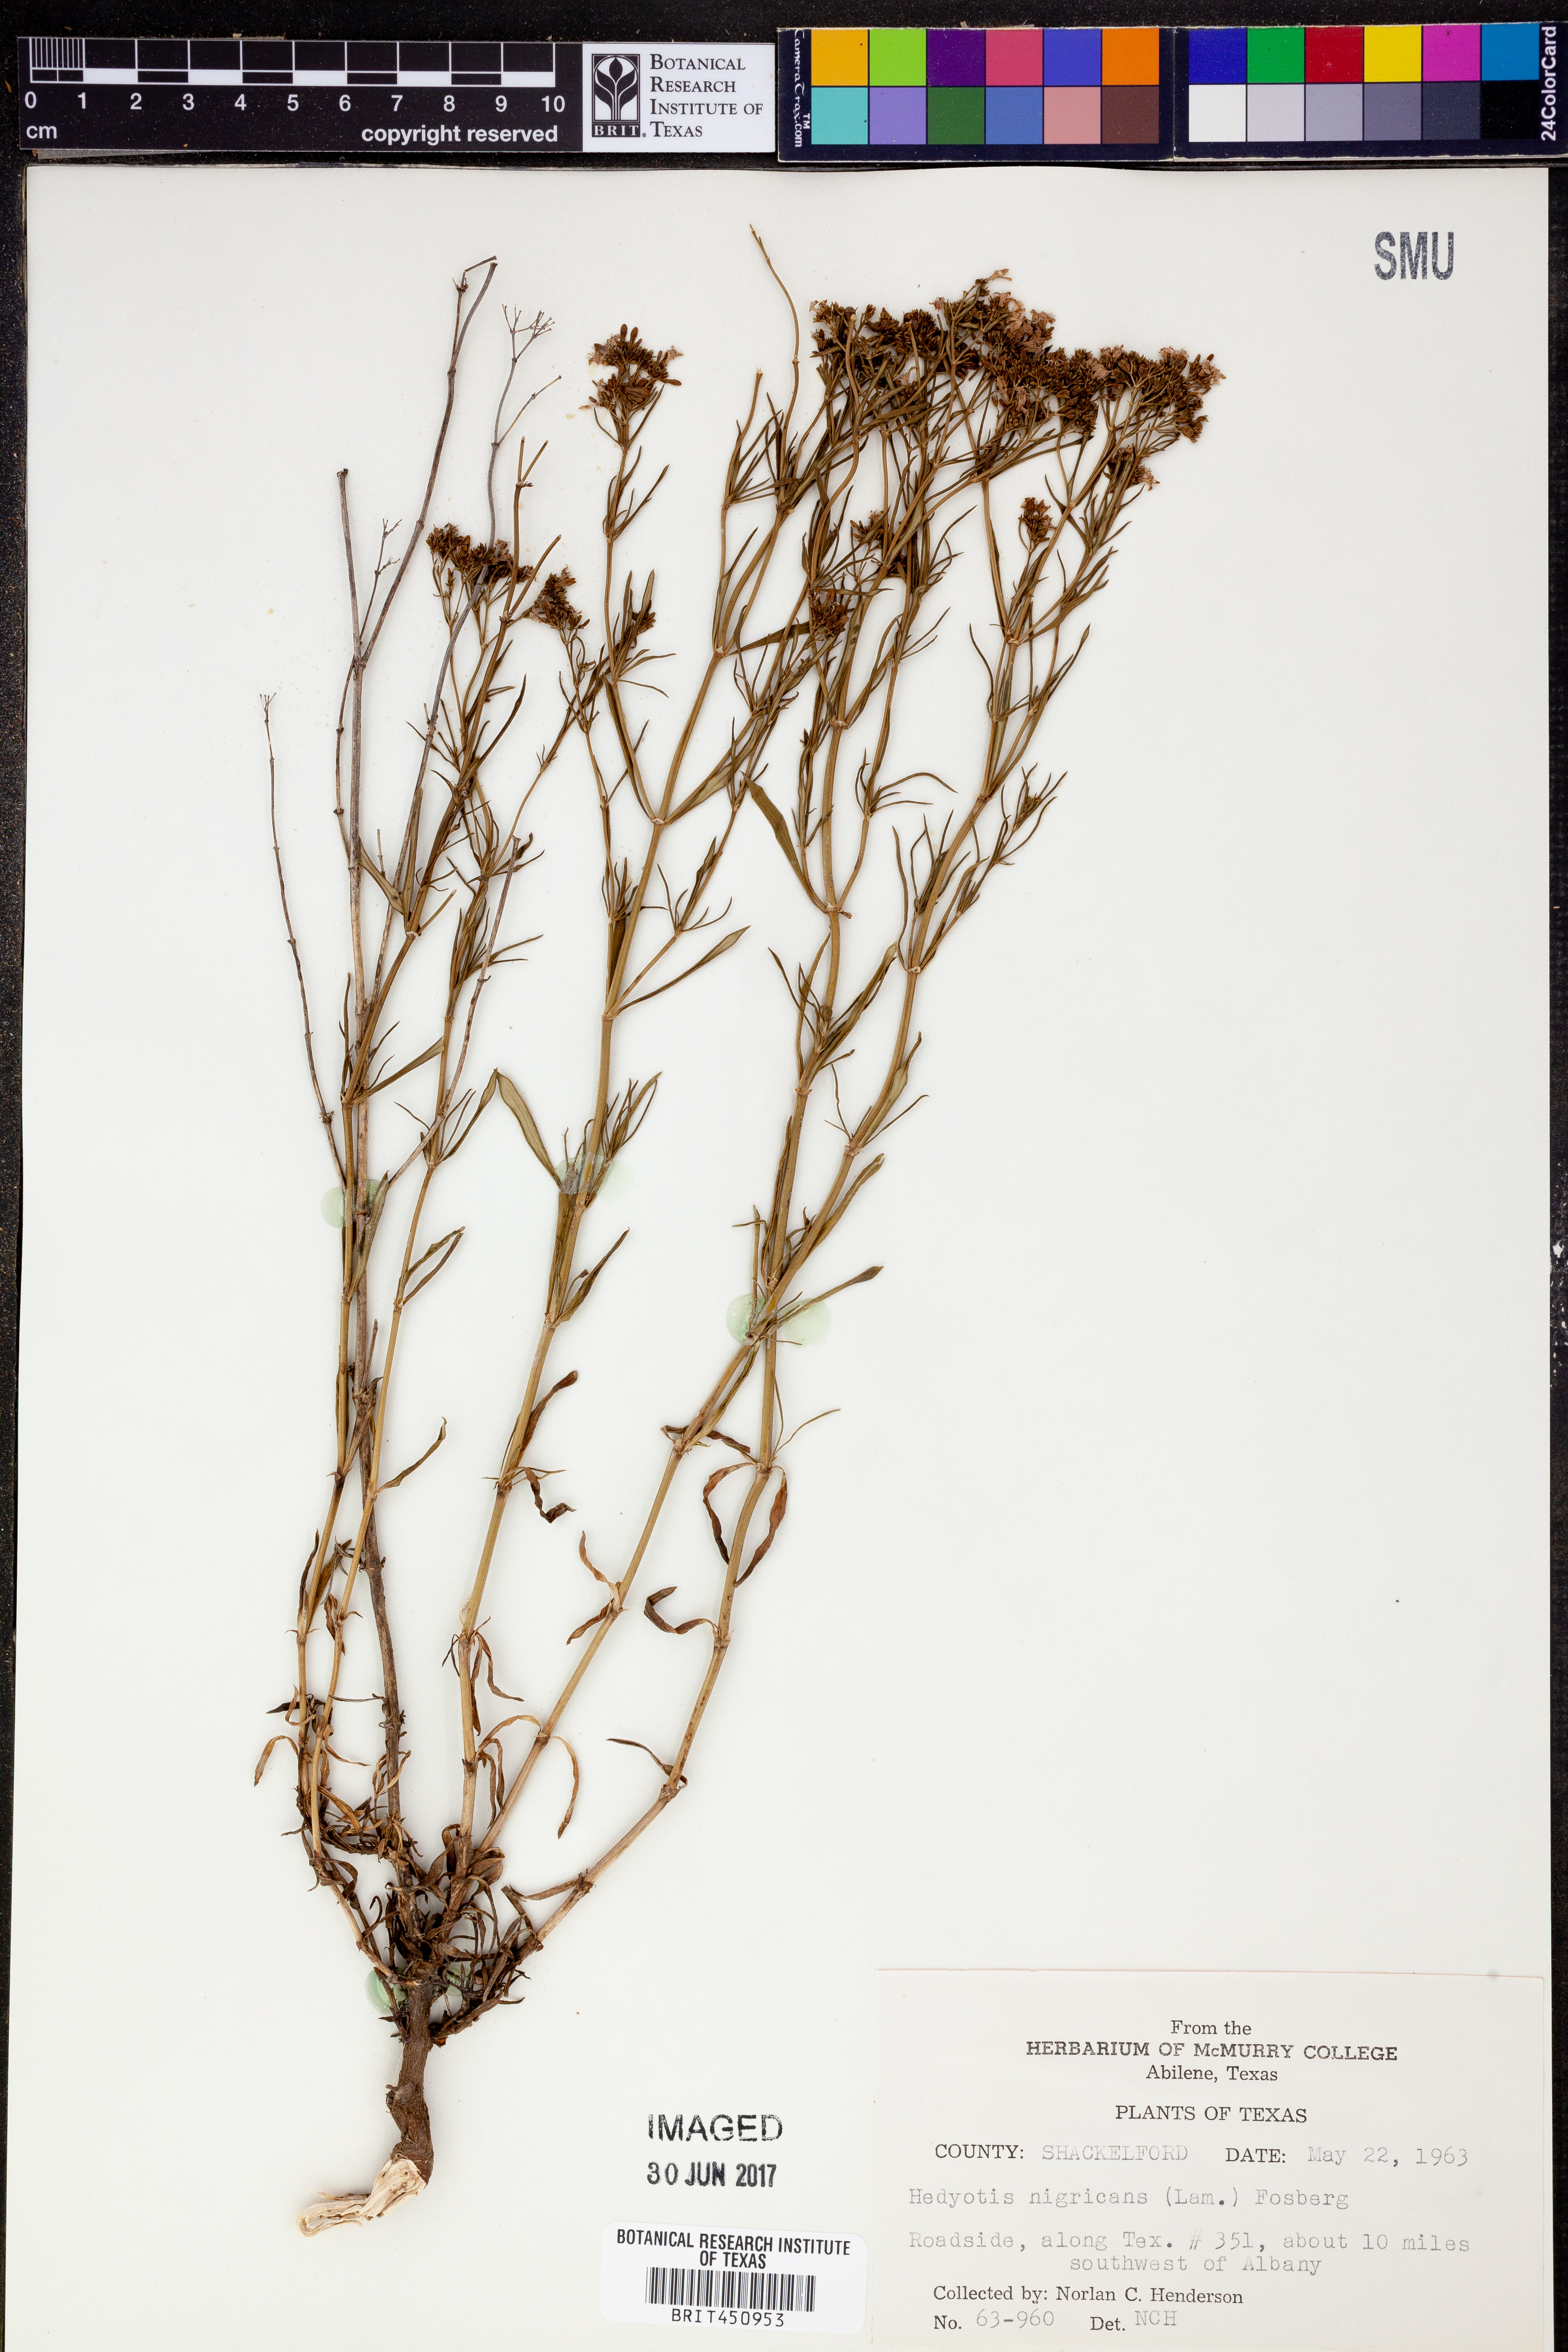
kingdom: Plantae
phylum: Tracheophyta
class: Magnoliopsida
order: Gentianales
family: Rubiaceae
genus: Stenaria
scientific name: Stenaria nigricans
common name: Diamondflowers
